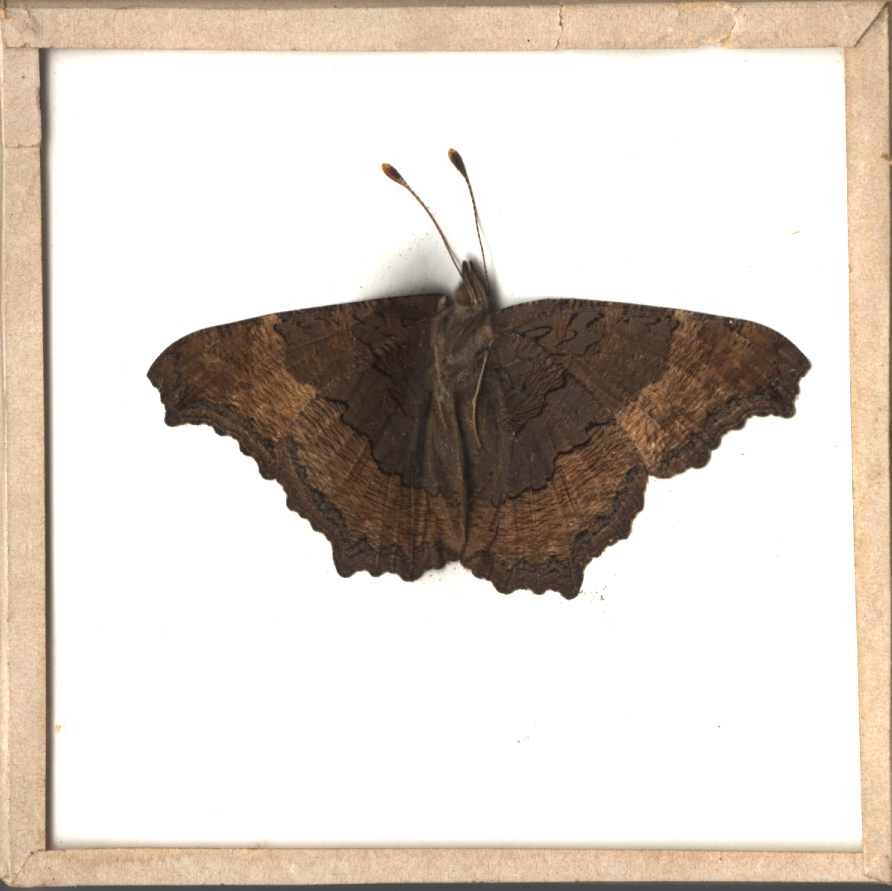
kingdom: Animalia
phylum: Arthropoda
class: Insecta
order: Lepidoptera
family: Nymphalidae
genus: Aglais
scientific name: Aglais milberti
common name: Milbert's Tortoiseshell
